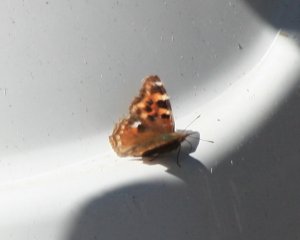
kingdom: Animalia
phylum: Arthropoda
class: Insecta
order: Lepidoptera
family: Nymphalidae
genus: Polygonia
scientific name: Polygonia vaualbum
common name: Compton Tortoiseshell
